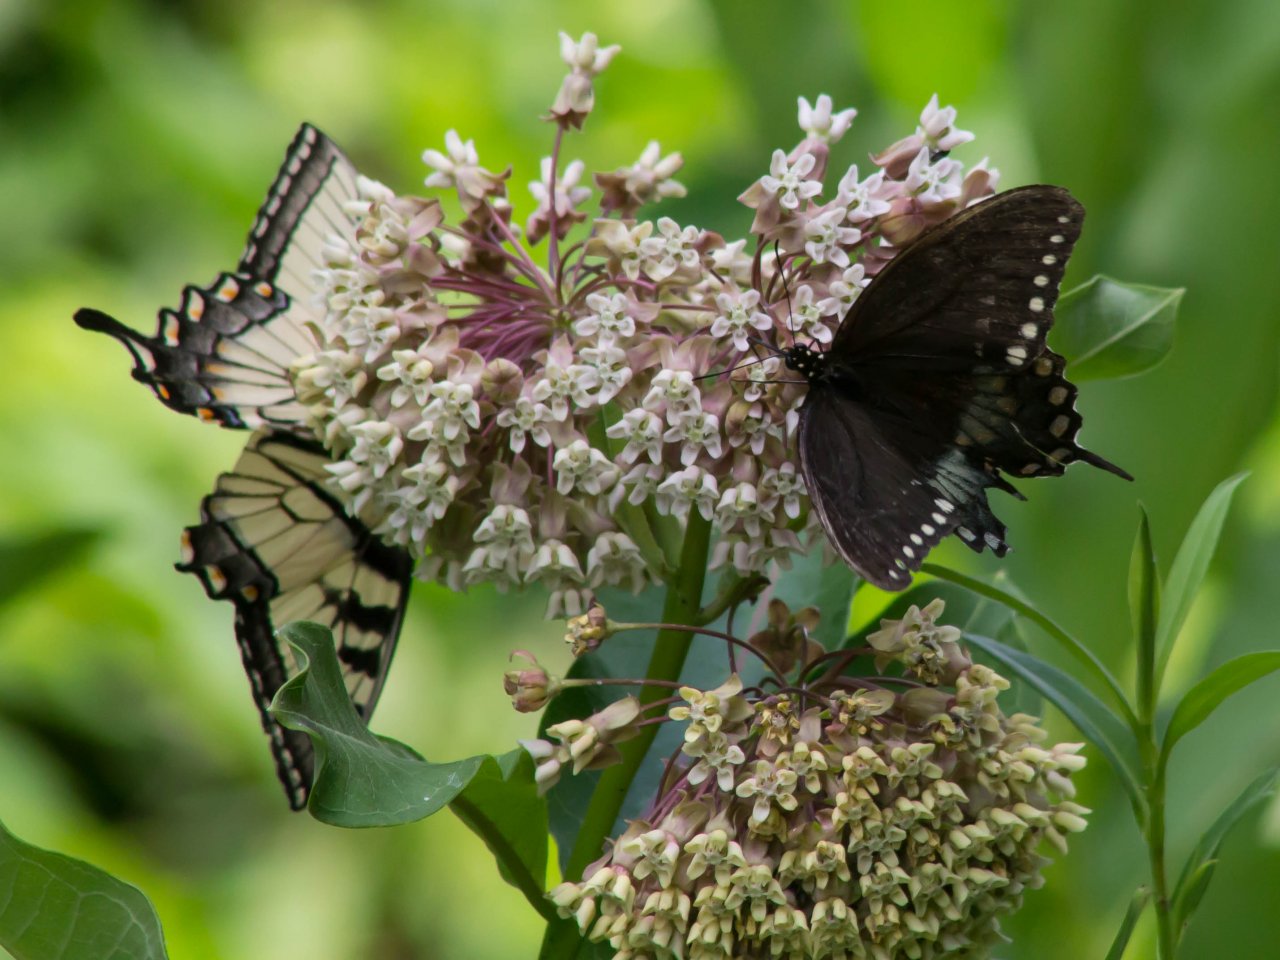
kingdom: Animalia
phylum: Arthropoda
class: Insecta
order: Lepidoptera
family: Papilionidae
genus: Pterourus
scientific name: Pterourus troilus
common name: Spicebush Swallowtail
